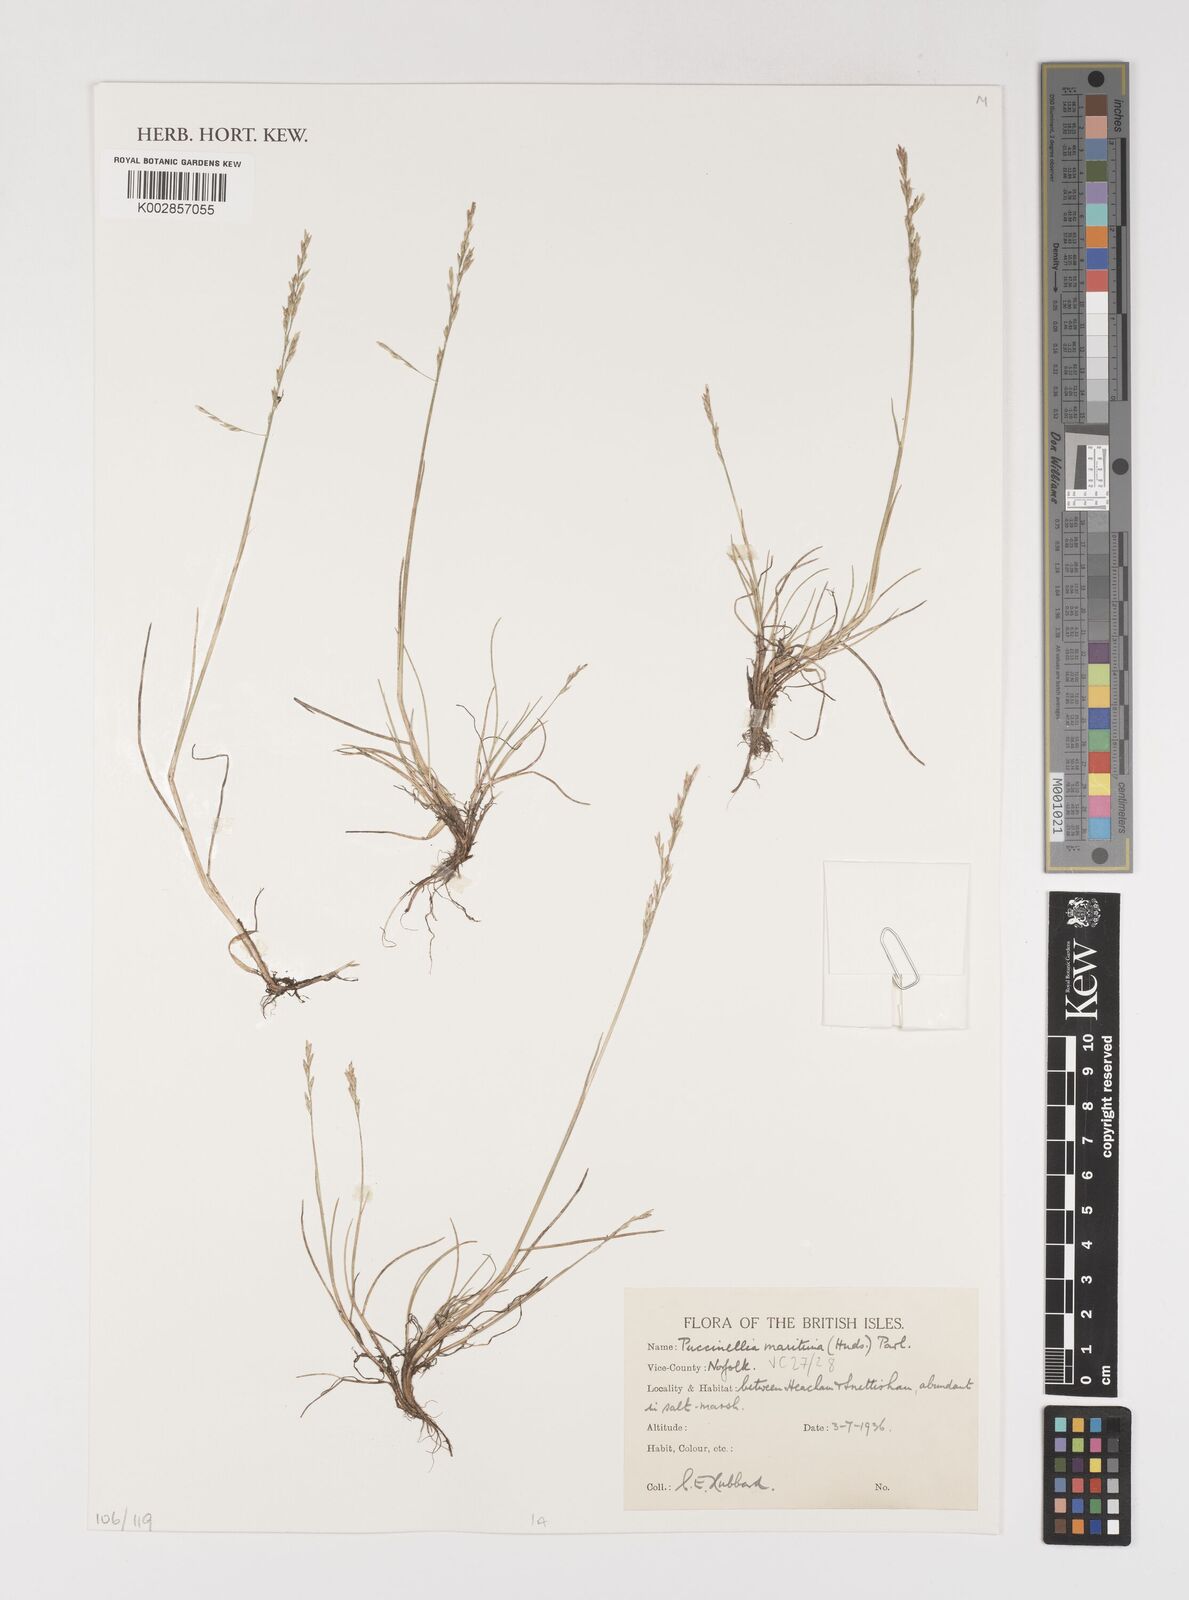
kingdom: Plantae
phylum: Tracheophyta
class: Liliopsida
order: Poales
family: Poaceae
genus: Puccinellia
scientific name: Puccinellia maritima
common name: Common saltmarsh grass
